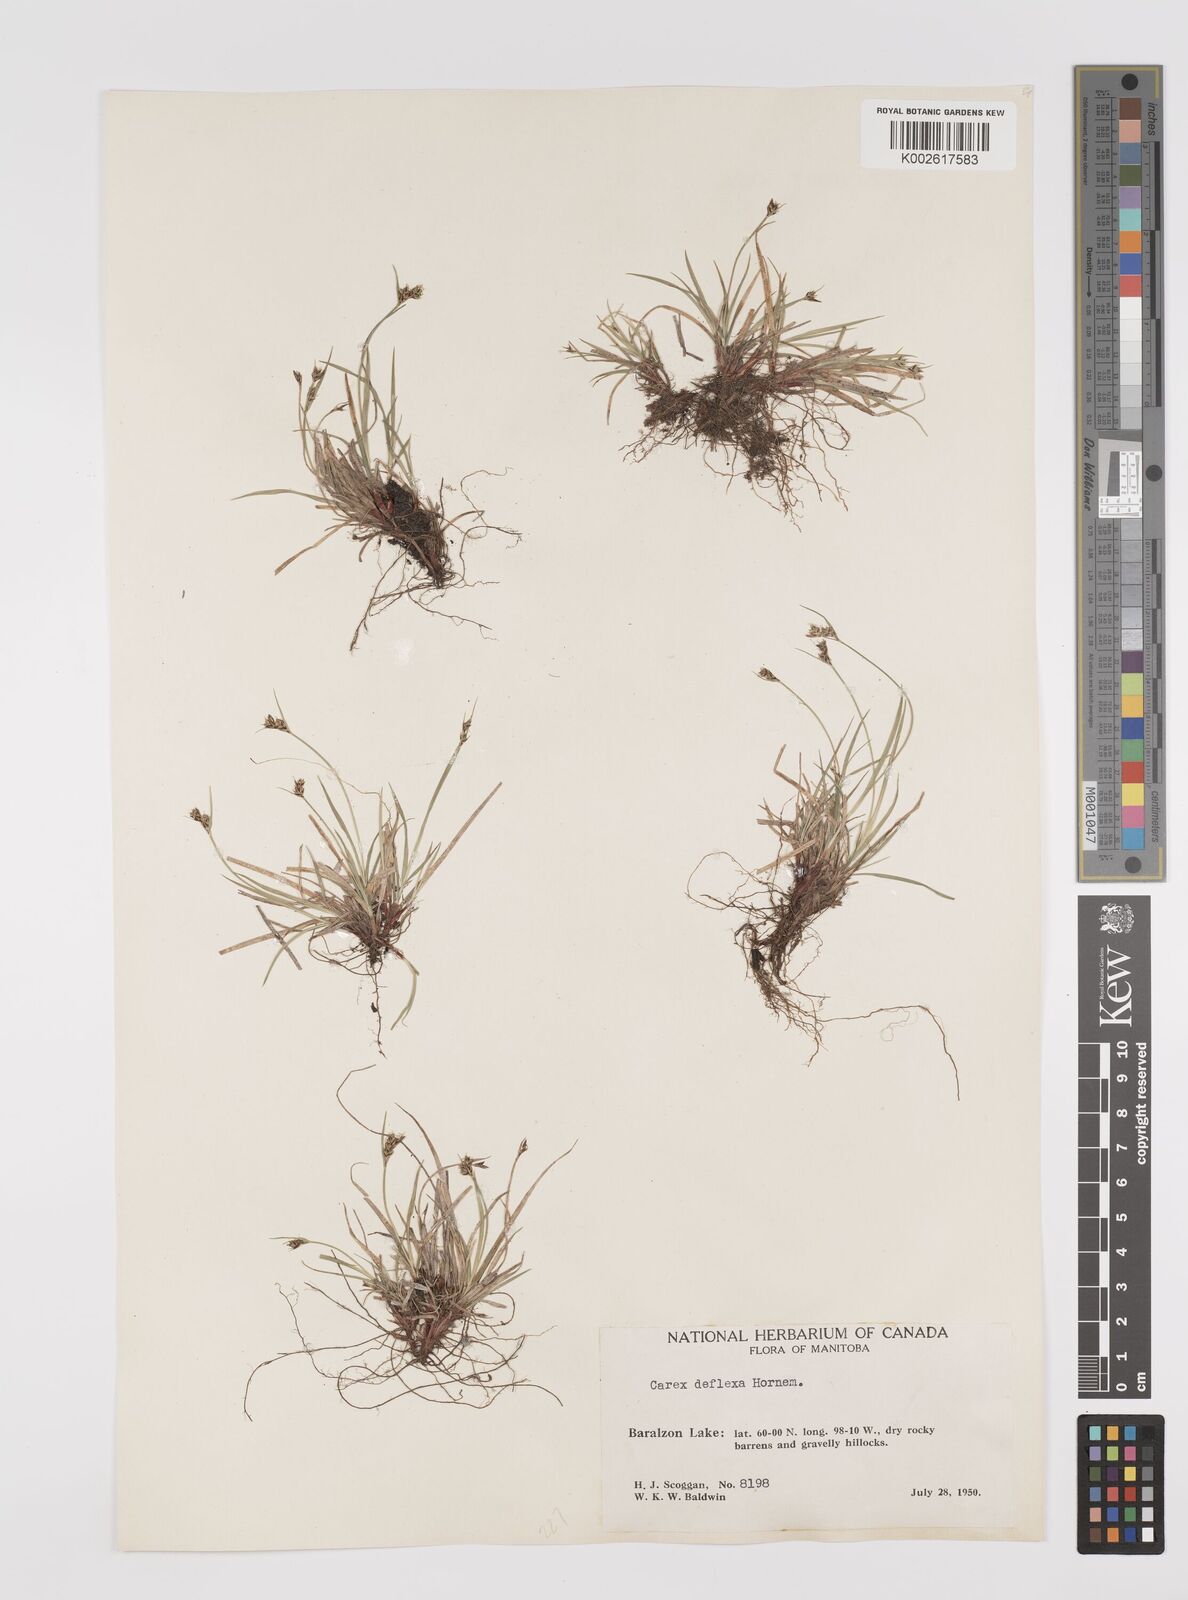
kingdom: Plantae
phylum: Tracheophyta
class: Liliopsida
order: Poales
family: Cyperaceae
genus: Carex
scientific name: Carex deflexa
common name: Bent northern sedge
